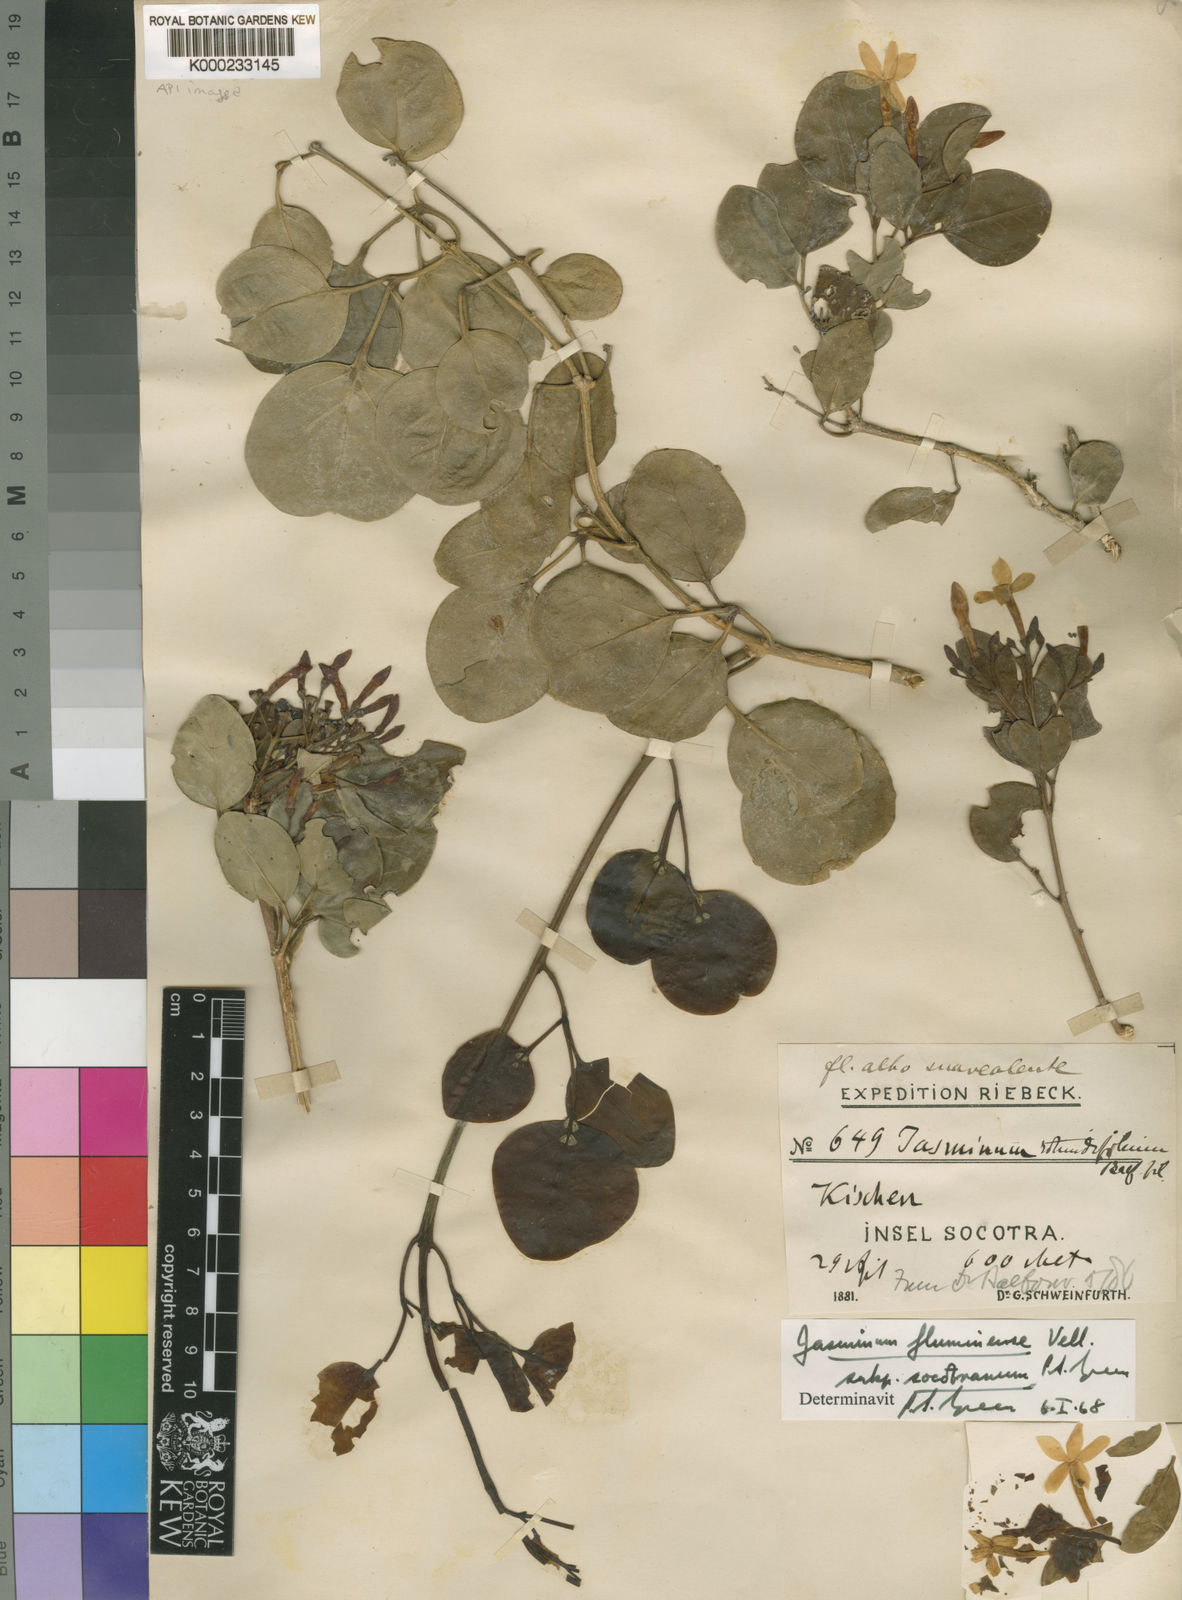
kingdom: Plantae
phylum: Tracheophyta
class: Magnoliopsida
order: Lamiales
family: Oleaceae
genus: Jasminum
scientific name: Jasminum fluminense
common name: Brazilian jasmine
